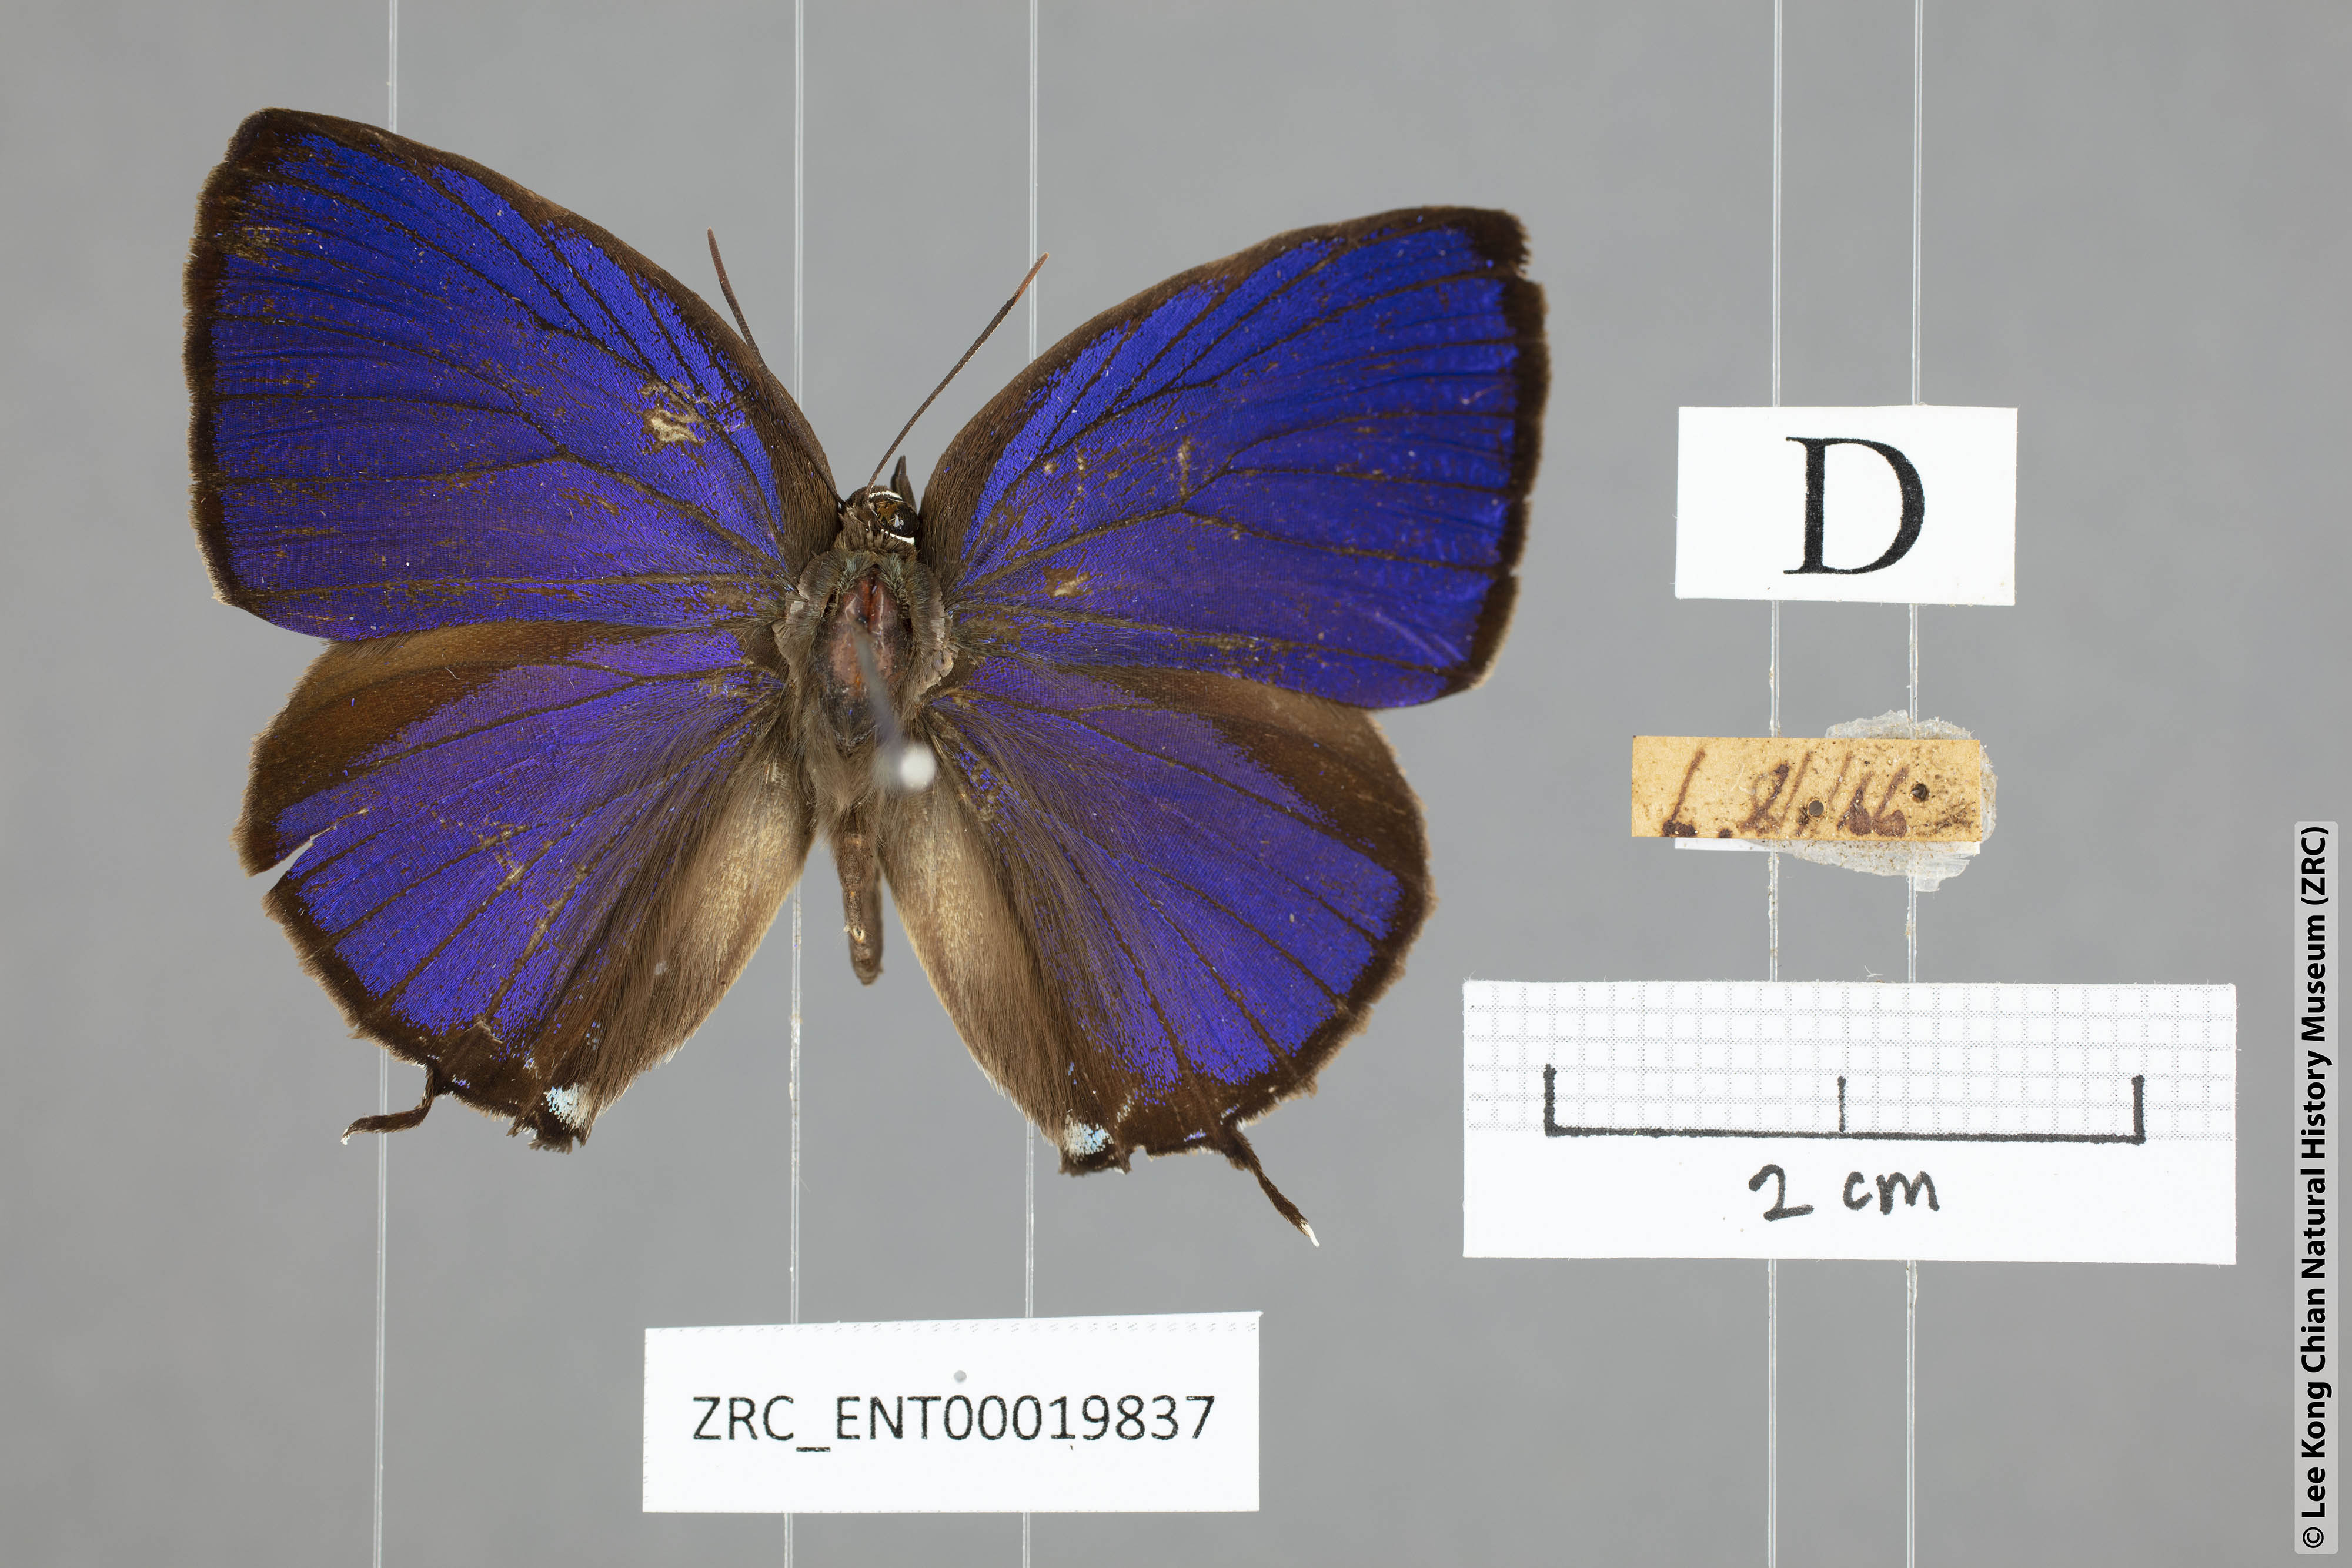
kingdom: Animalia
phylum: Arthropoda
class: Insecta
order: Lepidoptera
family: Lycaenidae
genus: Arhopala
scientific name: Arhopala
